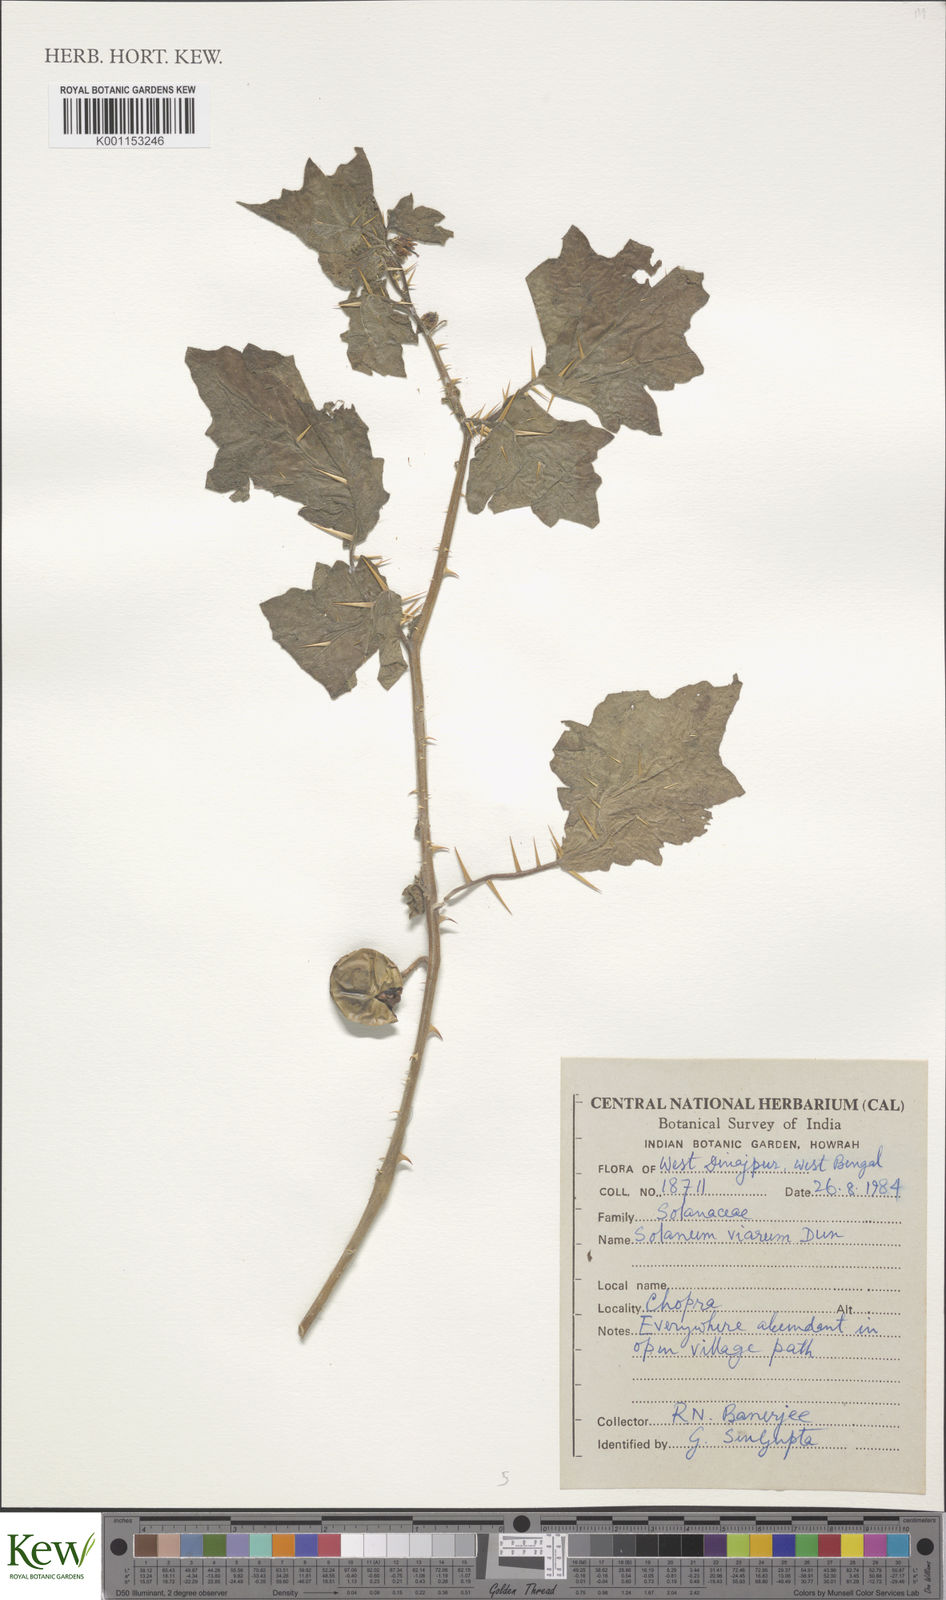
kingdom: Plantae
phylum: Tracheophyta
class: Magnoliopsida
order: Solanales
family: Solanaceae
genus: Solanum
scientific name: Solanum viarum
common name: Tropical soda apple
